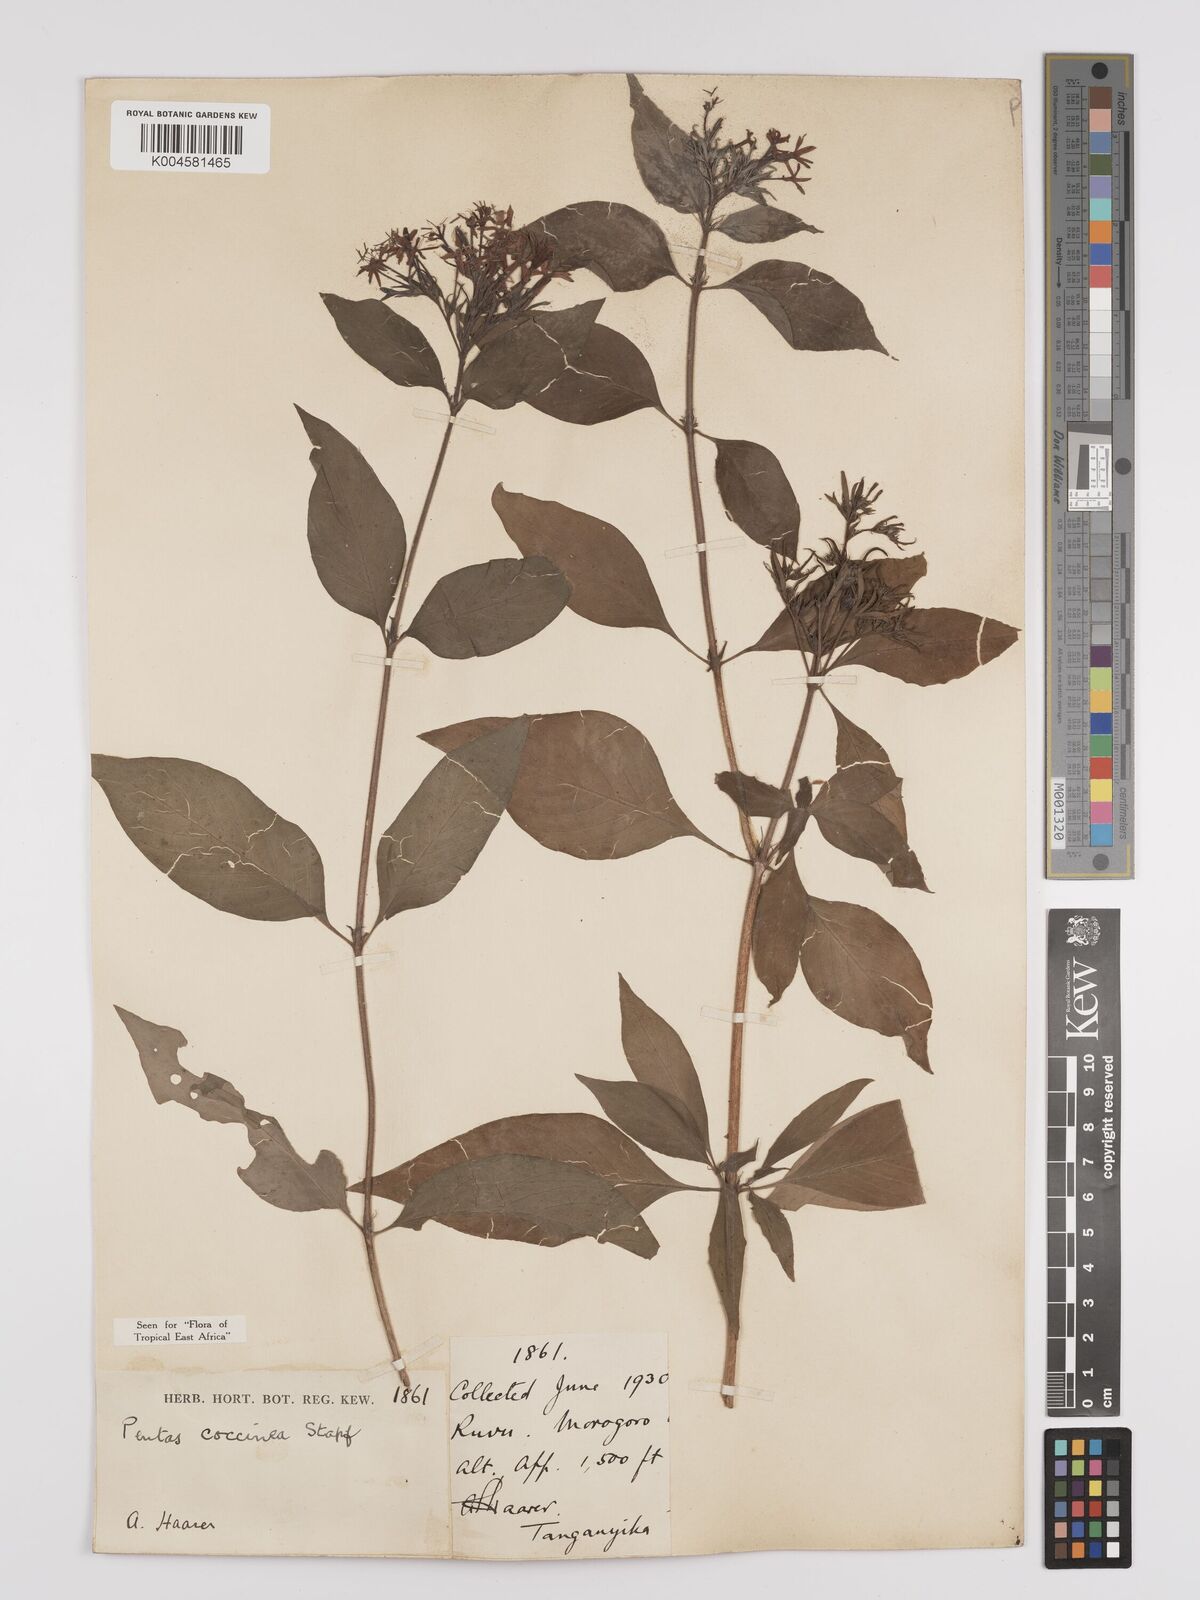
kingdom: Plantae
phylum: Tracheophyta
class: Magnoliopsida
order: Gentianales
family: Rubiaceae
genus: Rhodopentas
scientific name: Rhodopentas bussei
